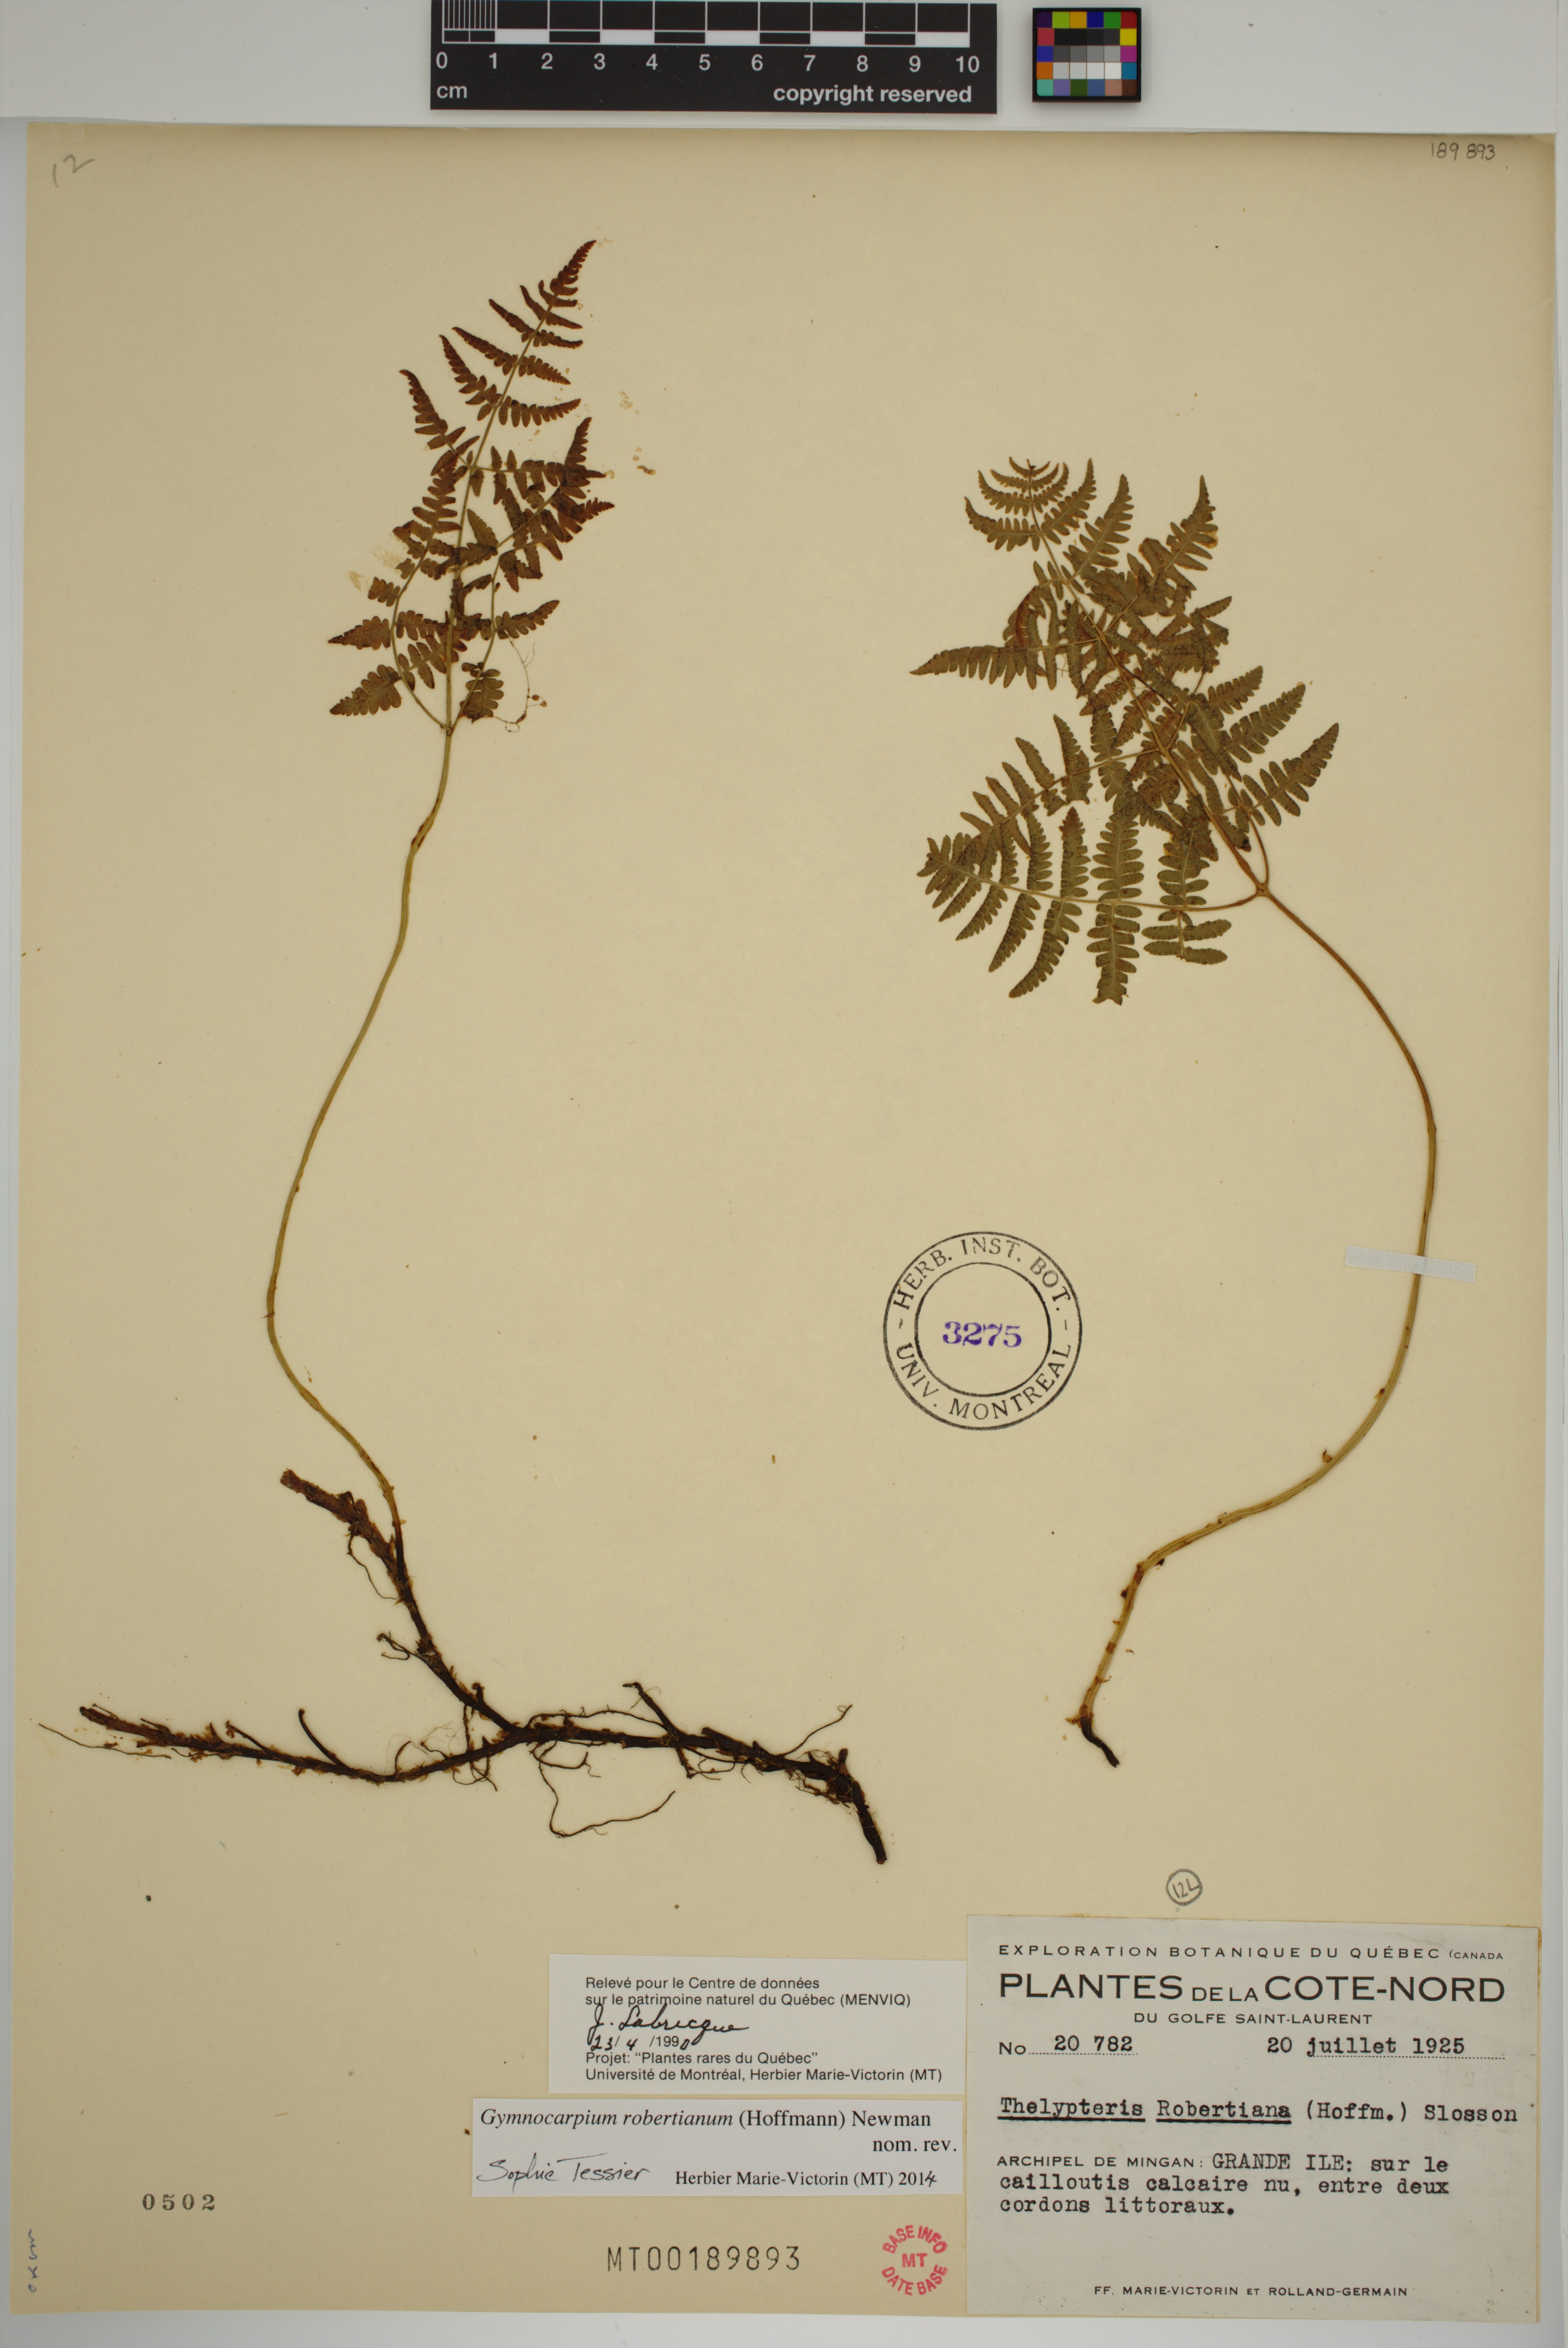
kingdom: Plantae
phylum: Tracheophyta
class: Polypodiopsida
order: Polypodiales
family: Cystopteridaceae
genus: Gymnocarpium
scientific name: Gymnocarpium robertianum
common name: Limestone fern
